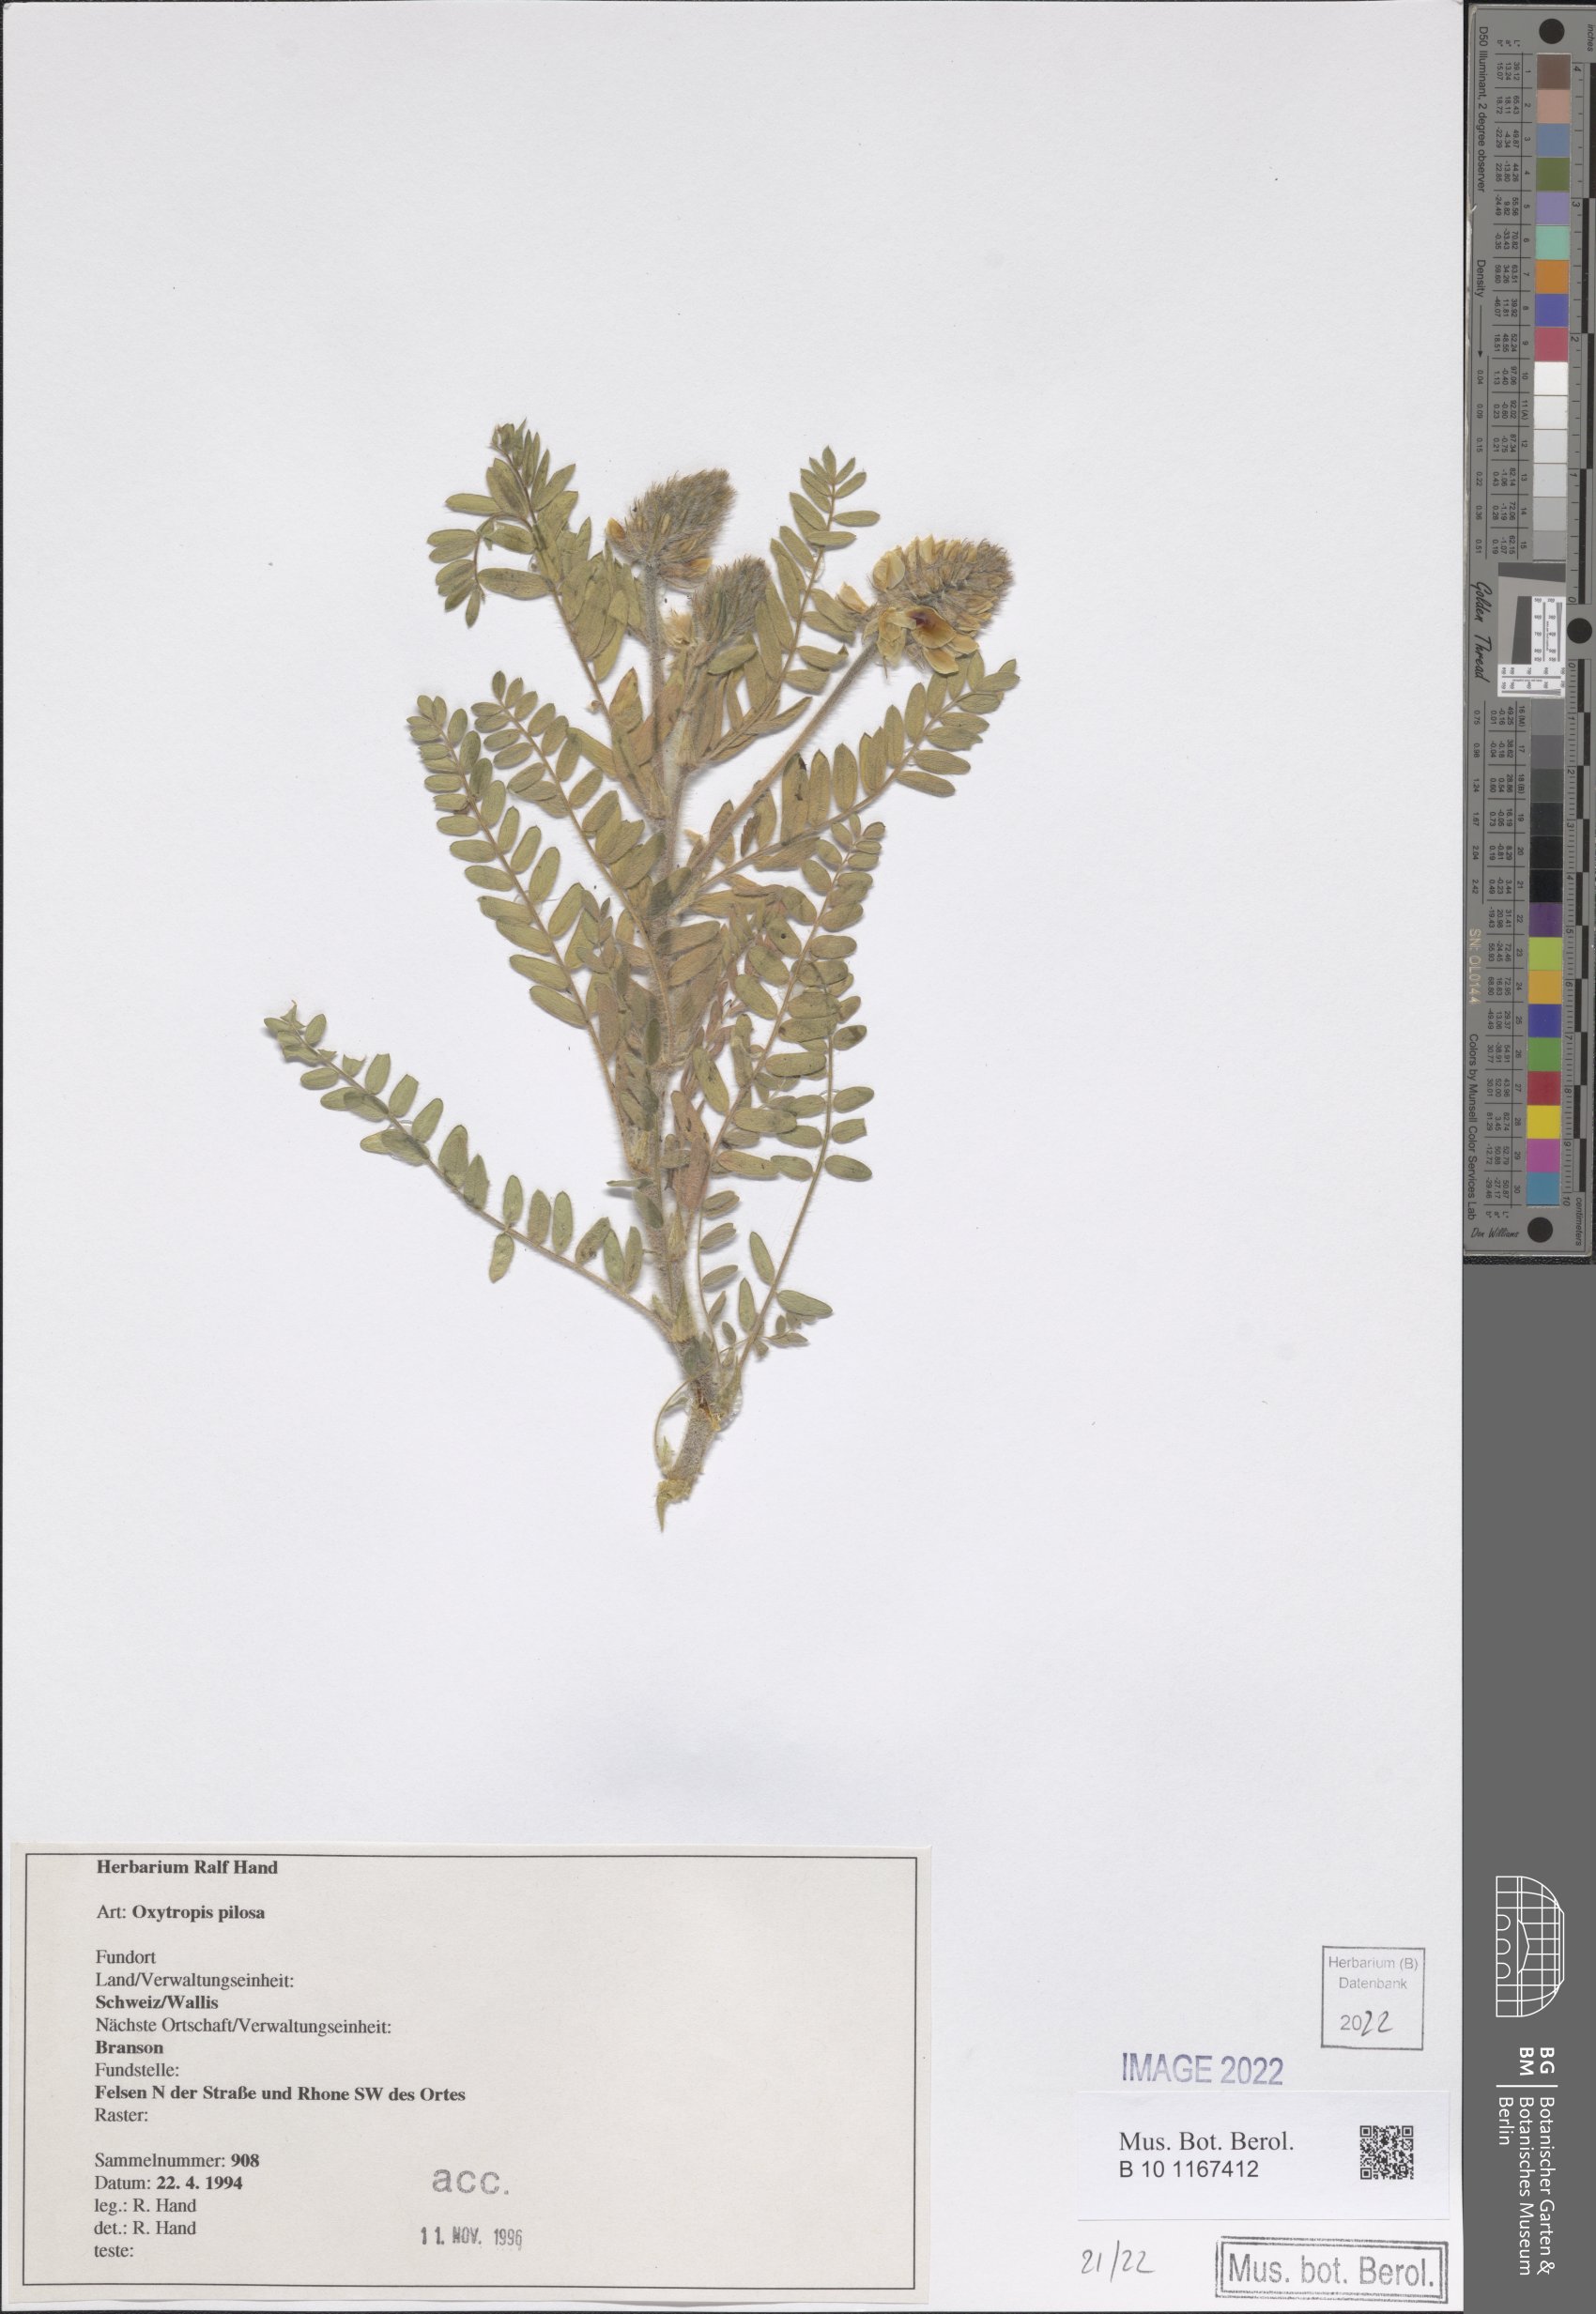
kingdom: Plantae
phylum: Tracheophyta
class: Magnoliopsida
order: Fabales
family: Fabaceae
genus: Oxytropis
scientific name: Oxytropis pilosa
